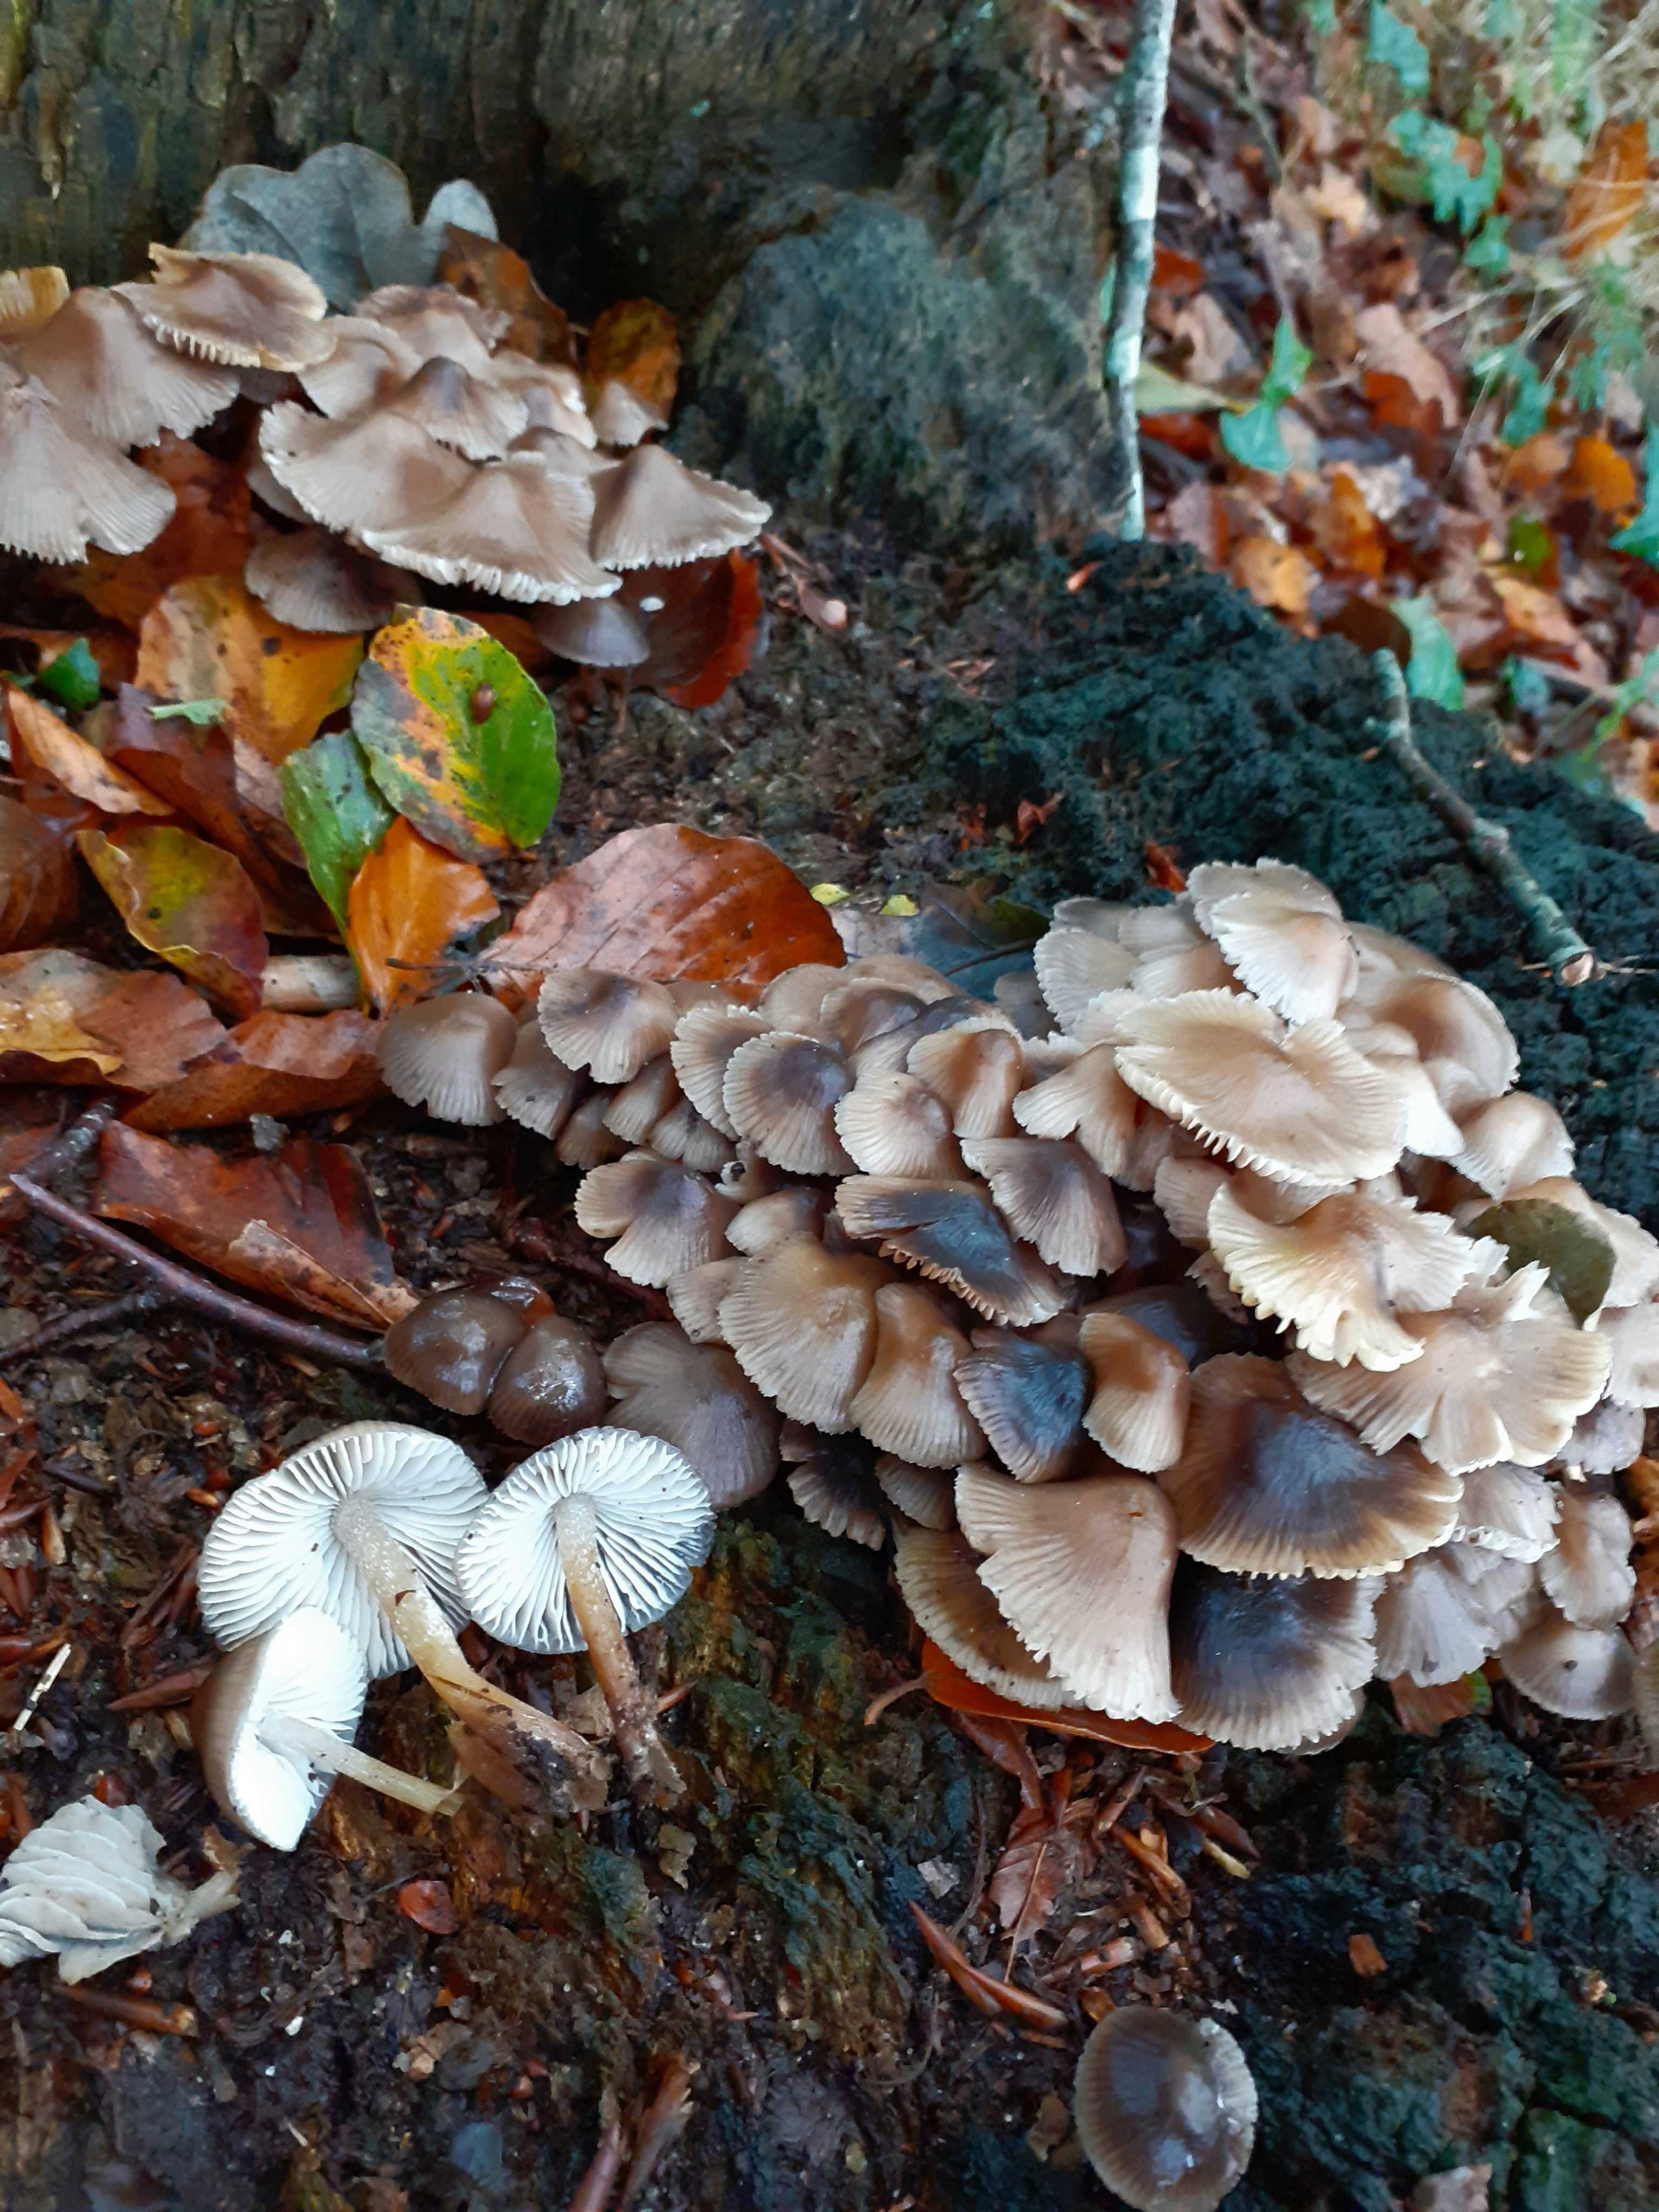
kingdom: Fungi
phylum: Basidiomycota
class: Agaricomycetes
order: Agaricales
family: Mycenaceae
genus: Mycena
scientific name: Mycena inclinata
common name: nikkende huesvamp
